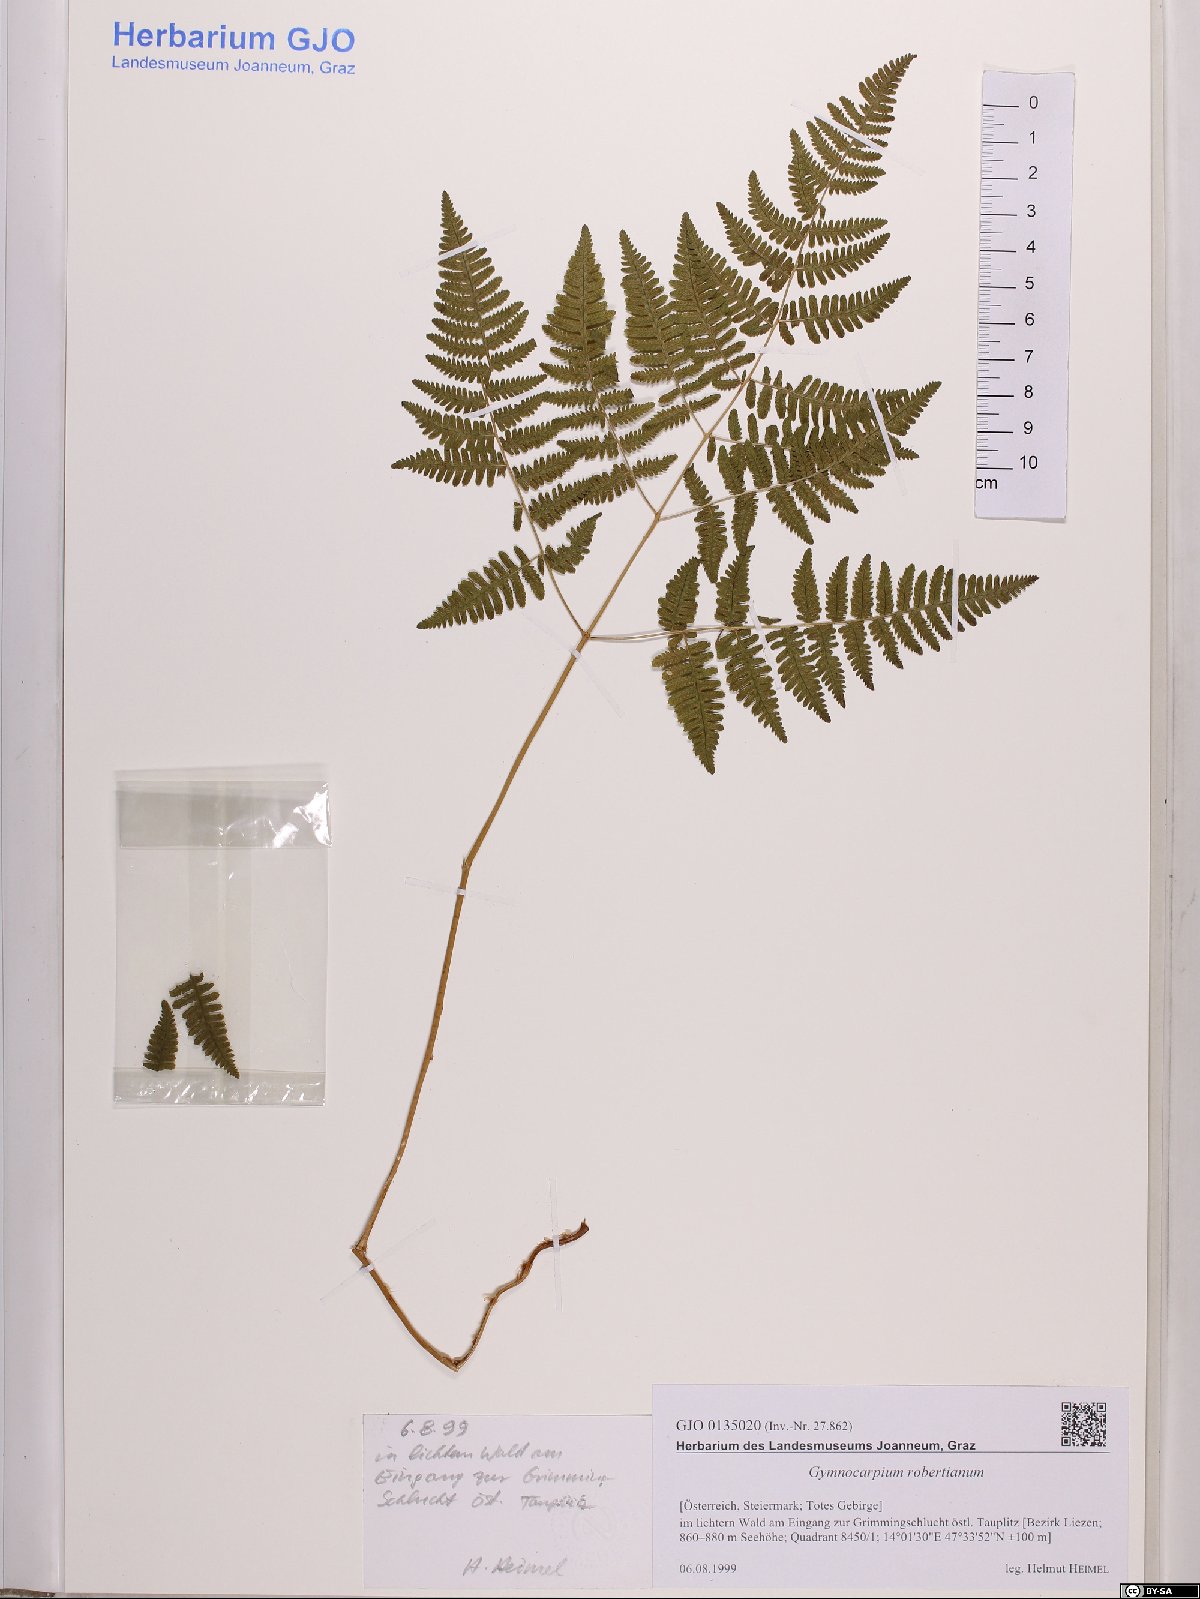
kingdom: Plantae
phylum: Tracheophyta
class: Polypodiopsida
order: Polypodiales
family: Cystopteridaceae
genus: Gymnocarpium
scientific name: Gymnocarpium robertianum
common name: Limestone fern
